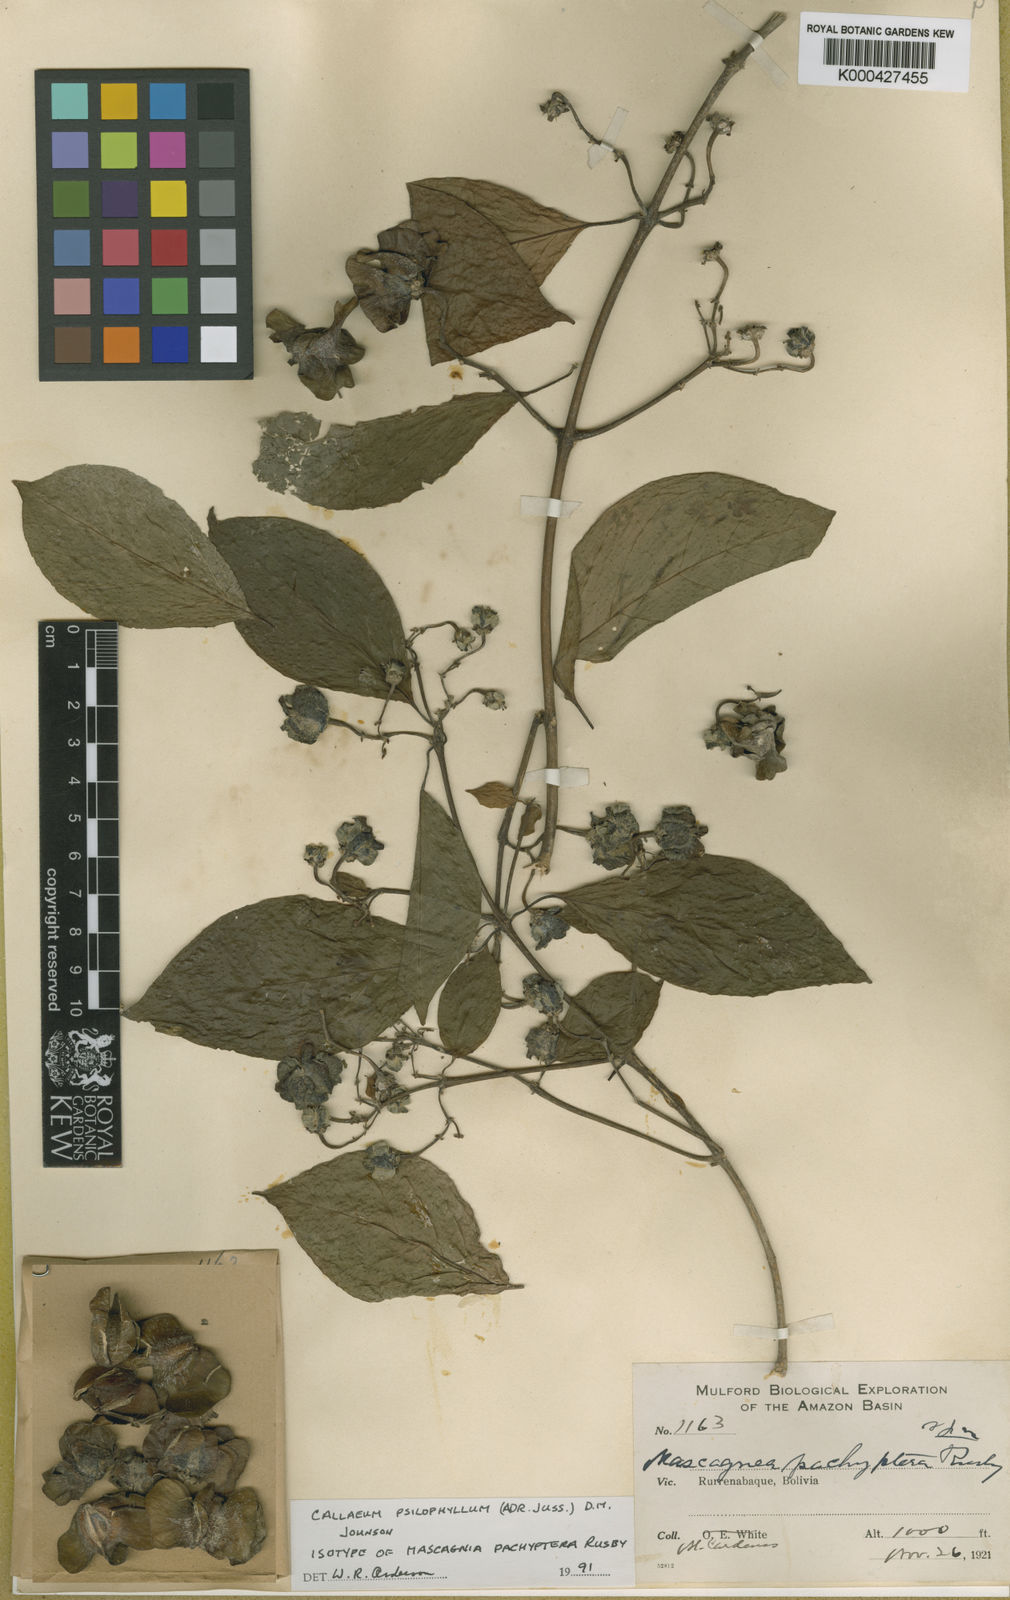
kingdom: Plantae
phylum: Tracheophyta
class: Magnoliopsida
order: Malpighiales
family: Malpighiaceae
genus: Callaeum
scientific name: Callaeum psilophyllum
